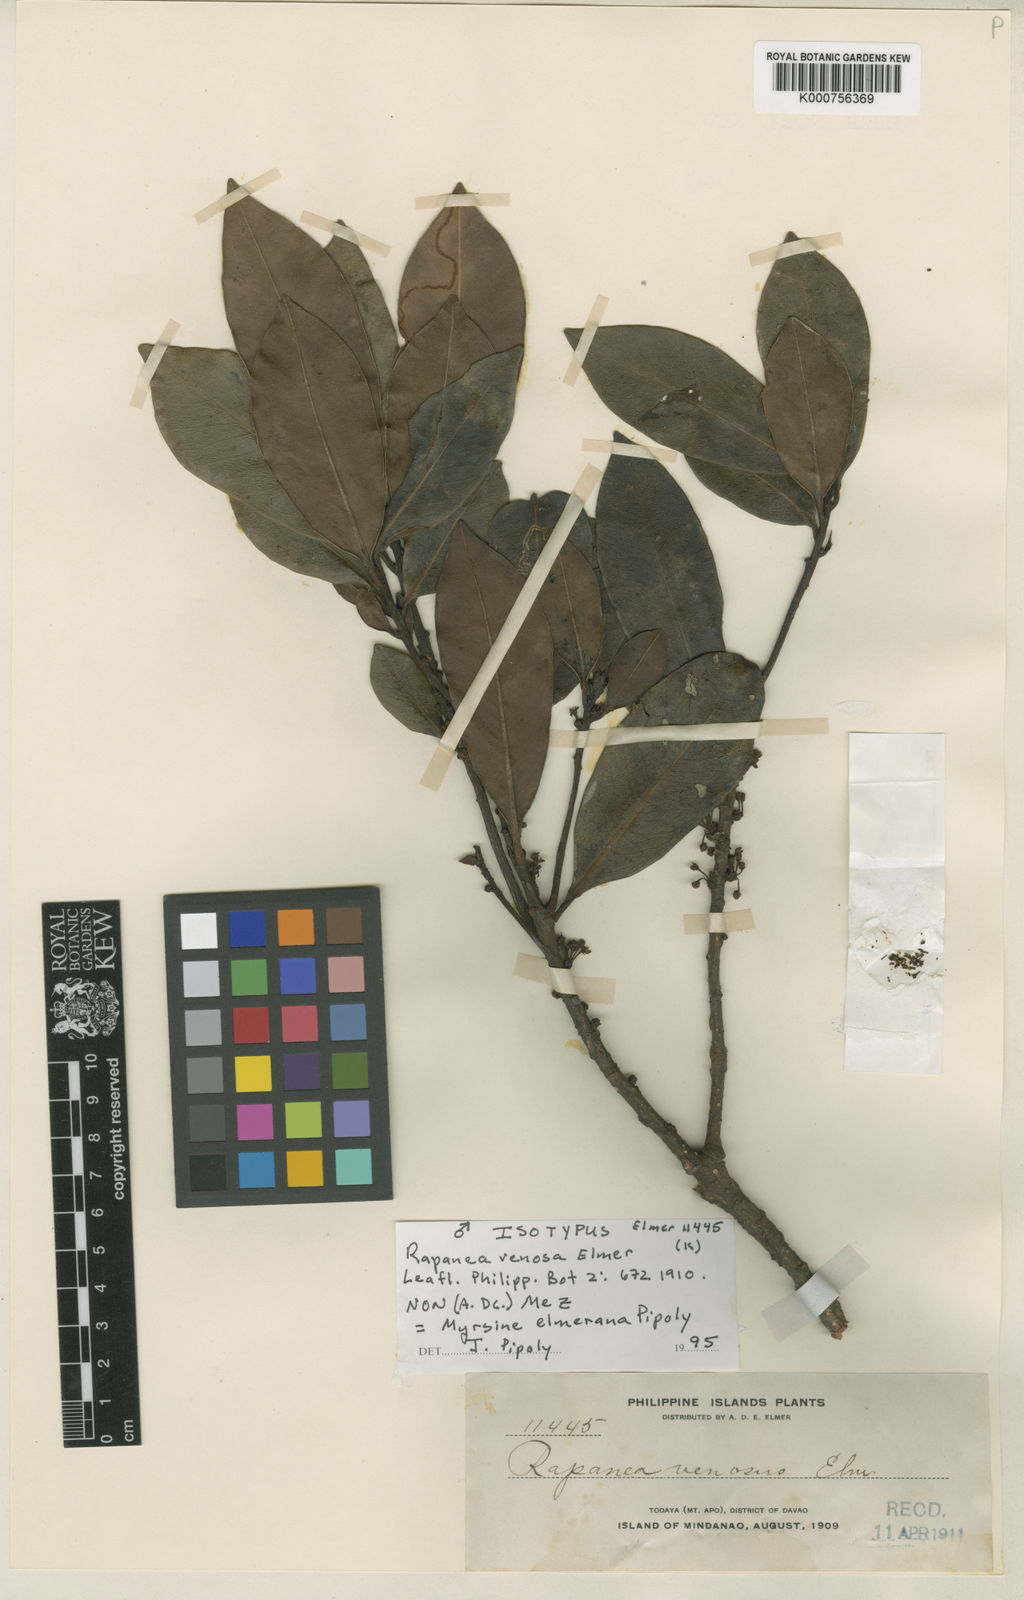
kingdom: Plantae
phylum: Tracheophyta
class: Magnoliopsida
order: Ericales
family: Primulaceae
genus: Myrsine
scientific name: Myrsine peregrina
